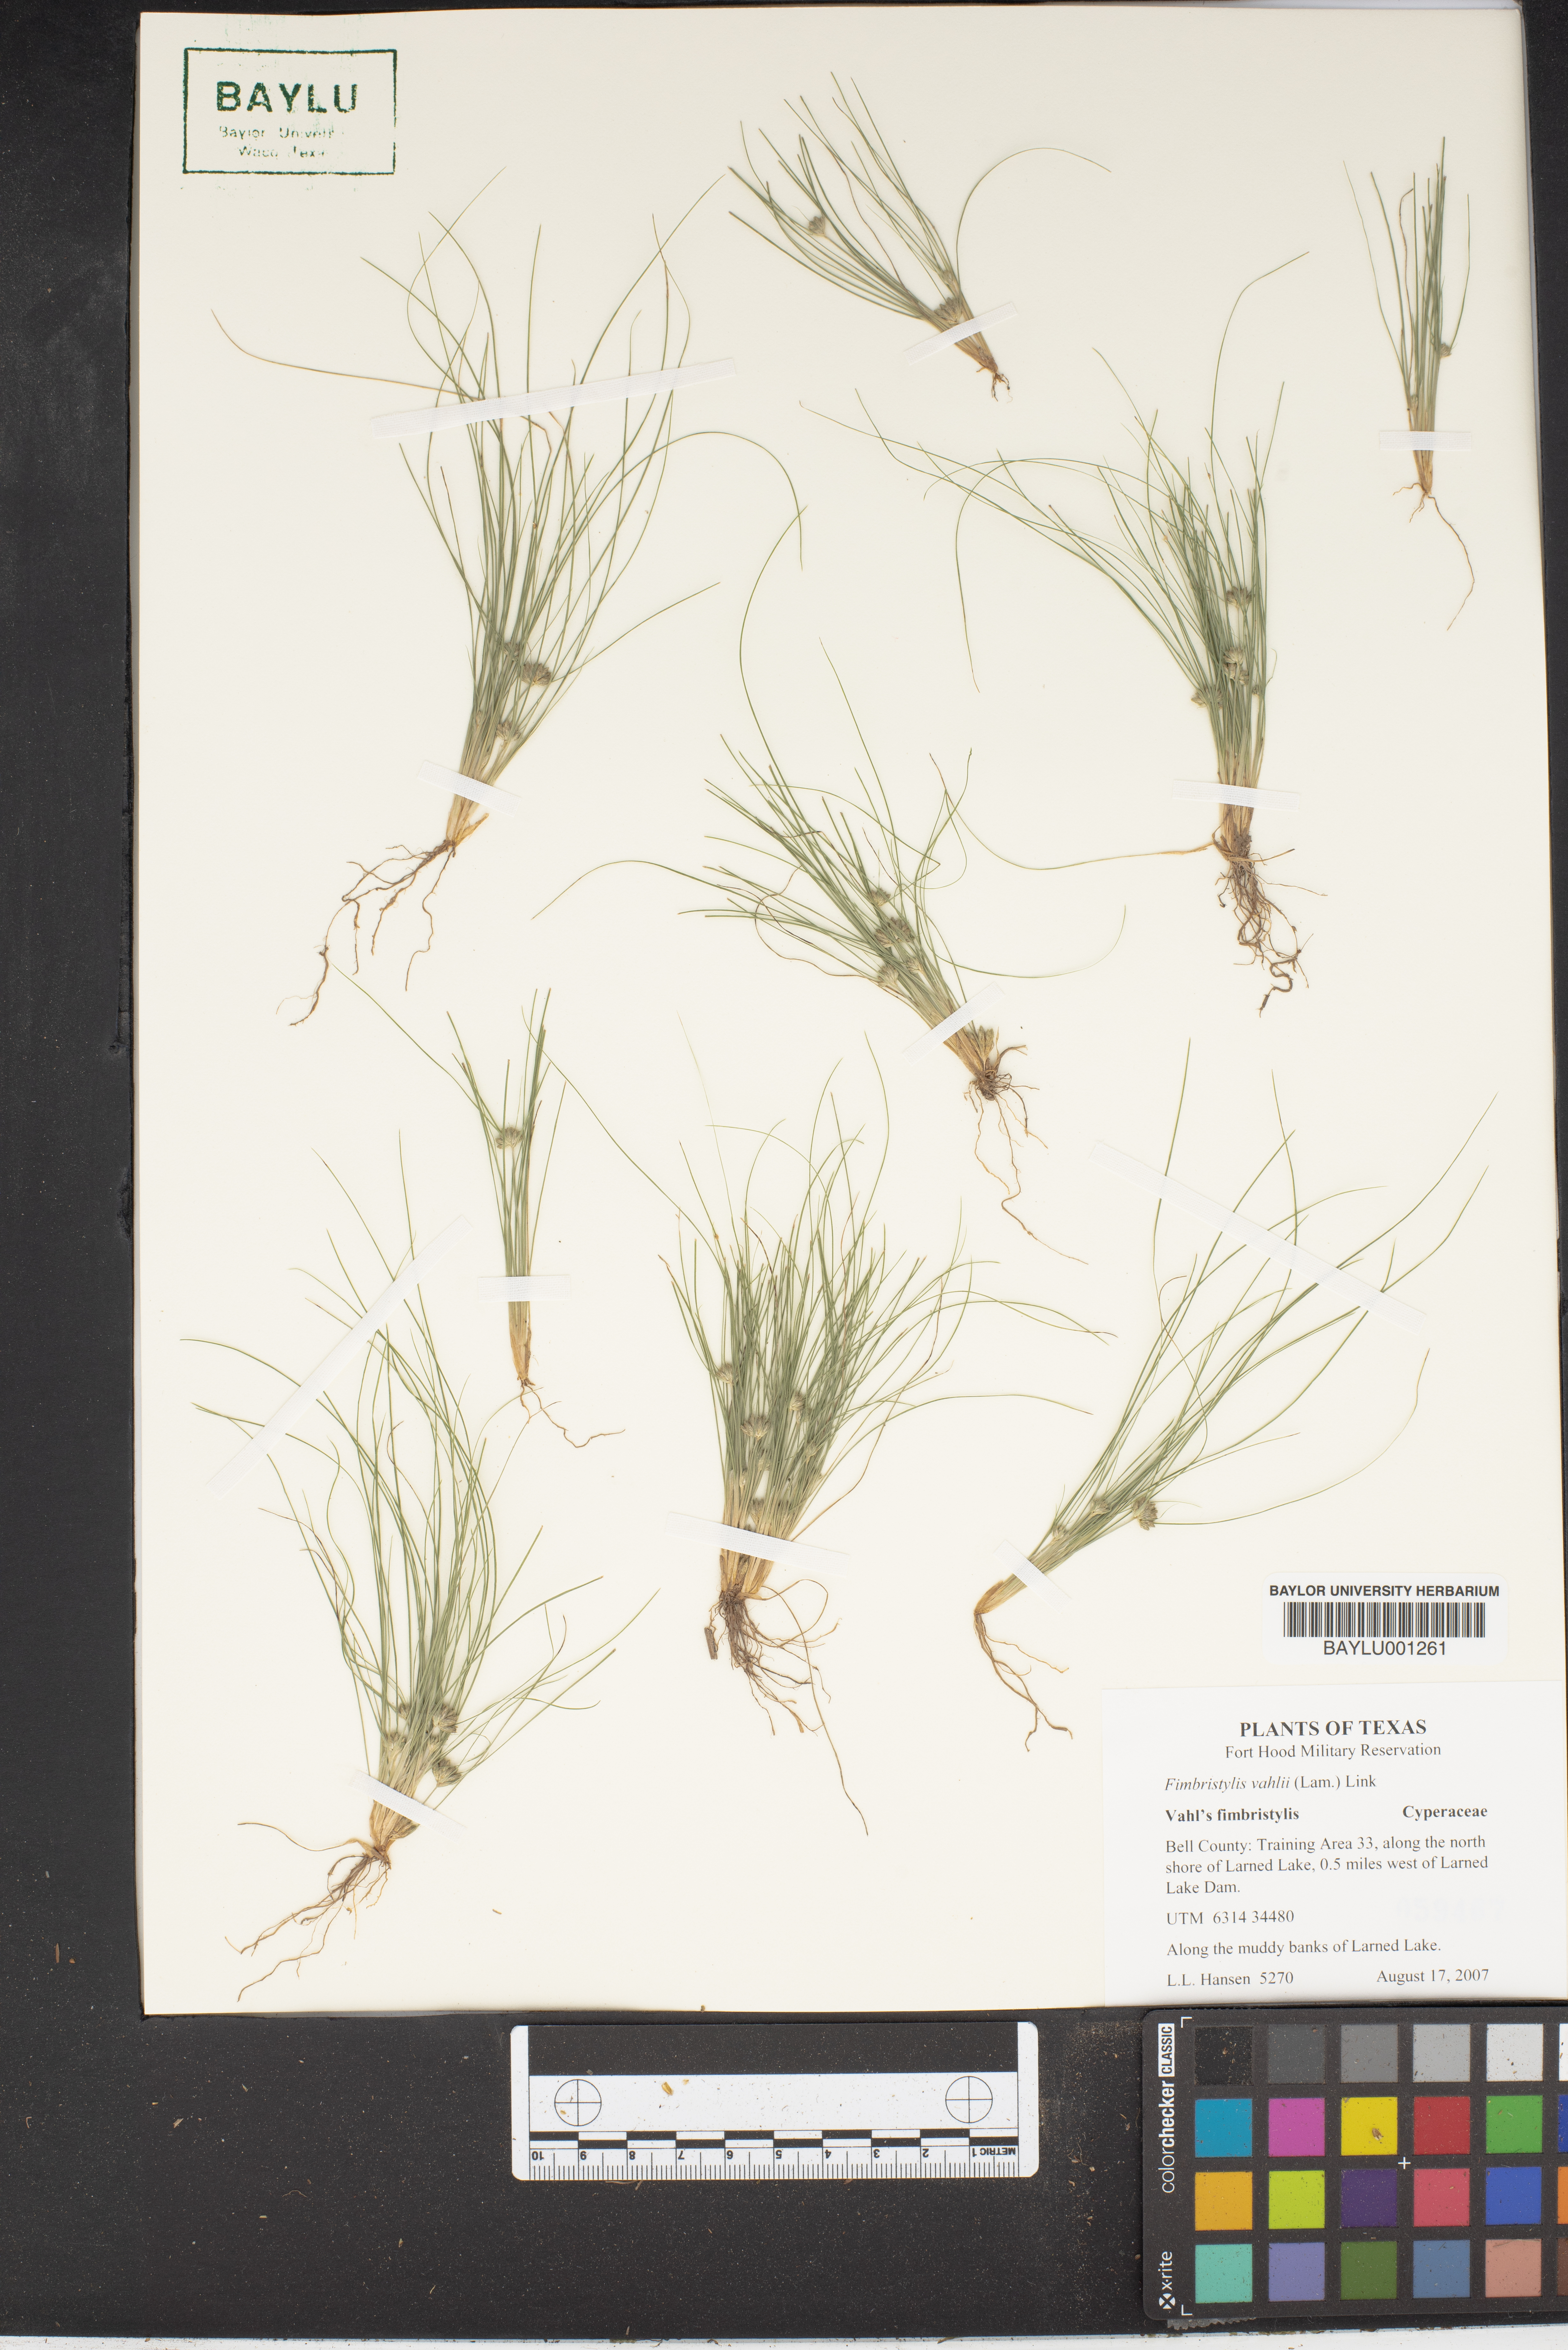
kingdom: Plantae
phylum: Tracheophyta
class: Liliopsida
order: Poales
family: Cyperaceae
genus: Fimbristylis
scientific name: Fimbristylis vahlii
